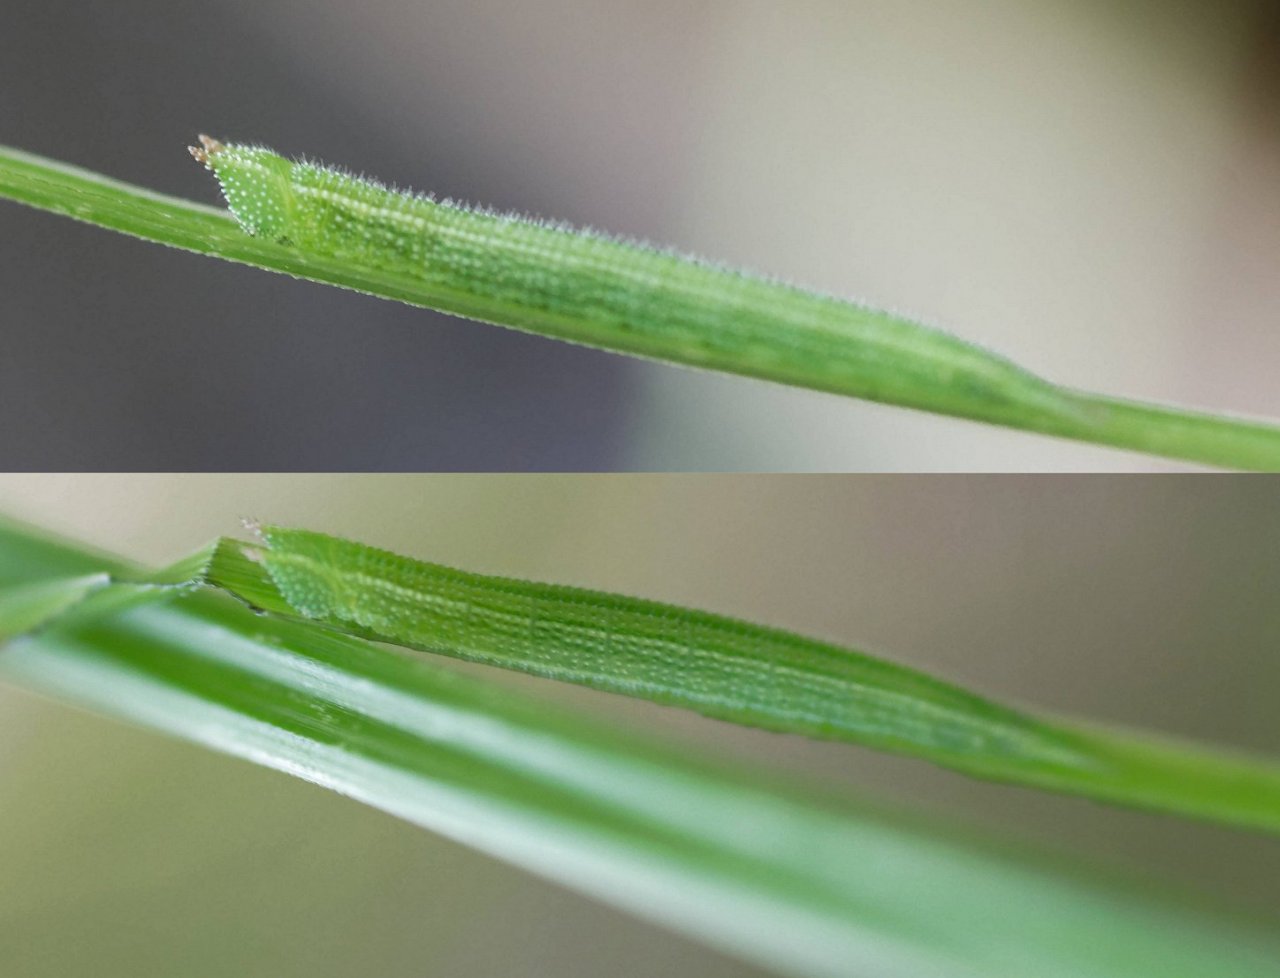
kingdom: Animalia
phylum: Arthropoda
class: Insecta
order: Lepidoptera
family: Nymphalidae
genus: Lethe
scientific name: Lethe anthedon
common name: Northern Pearly-Eye
